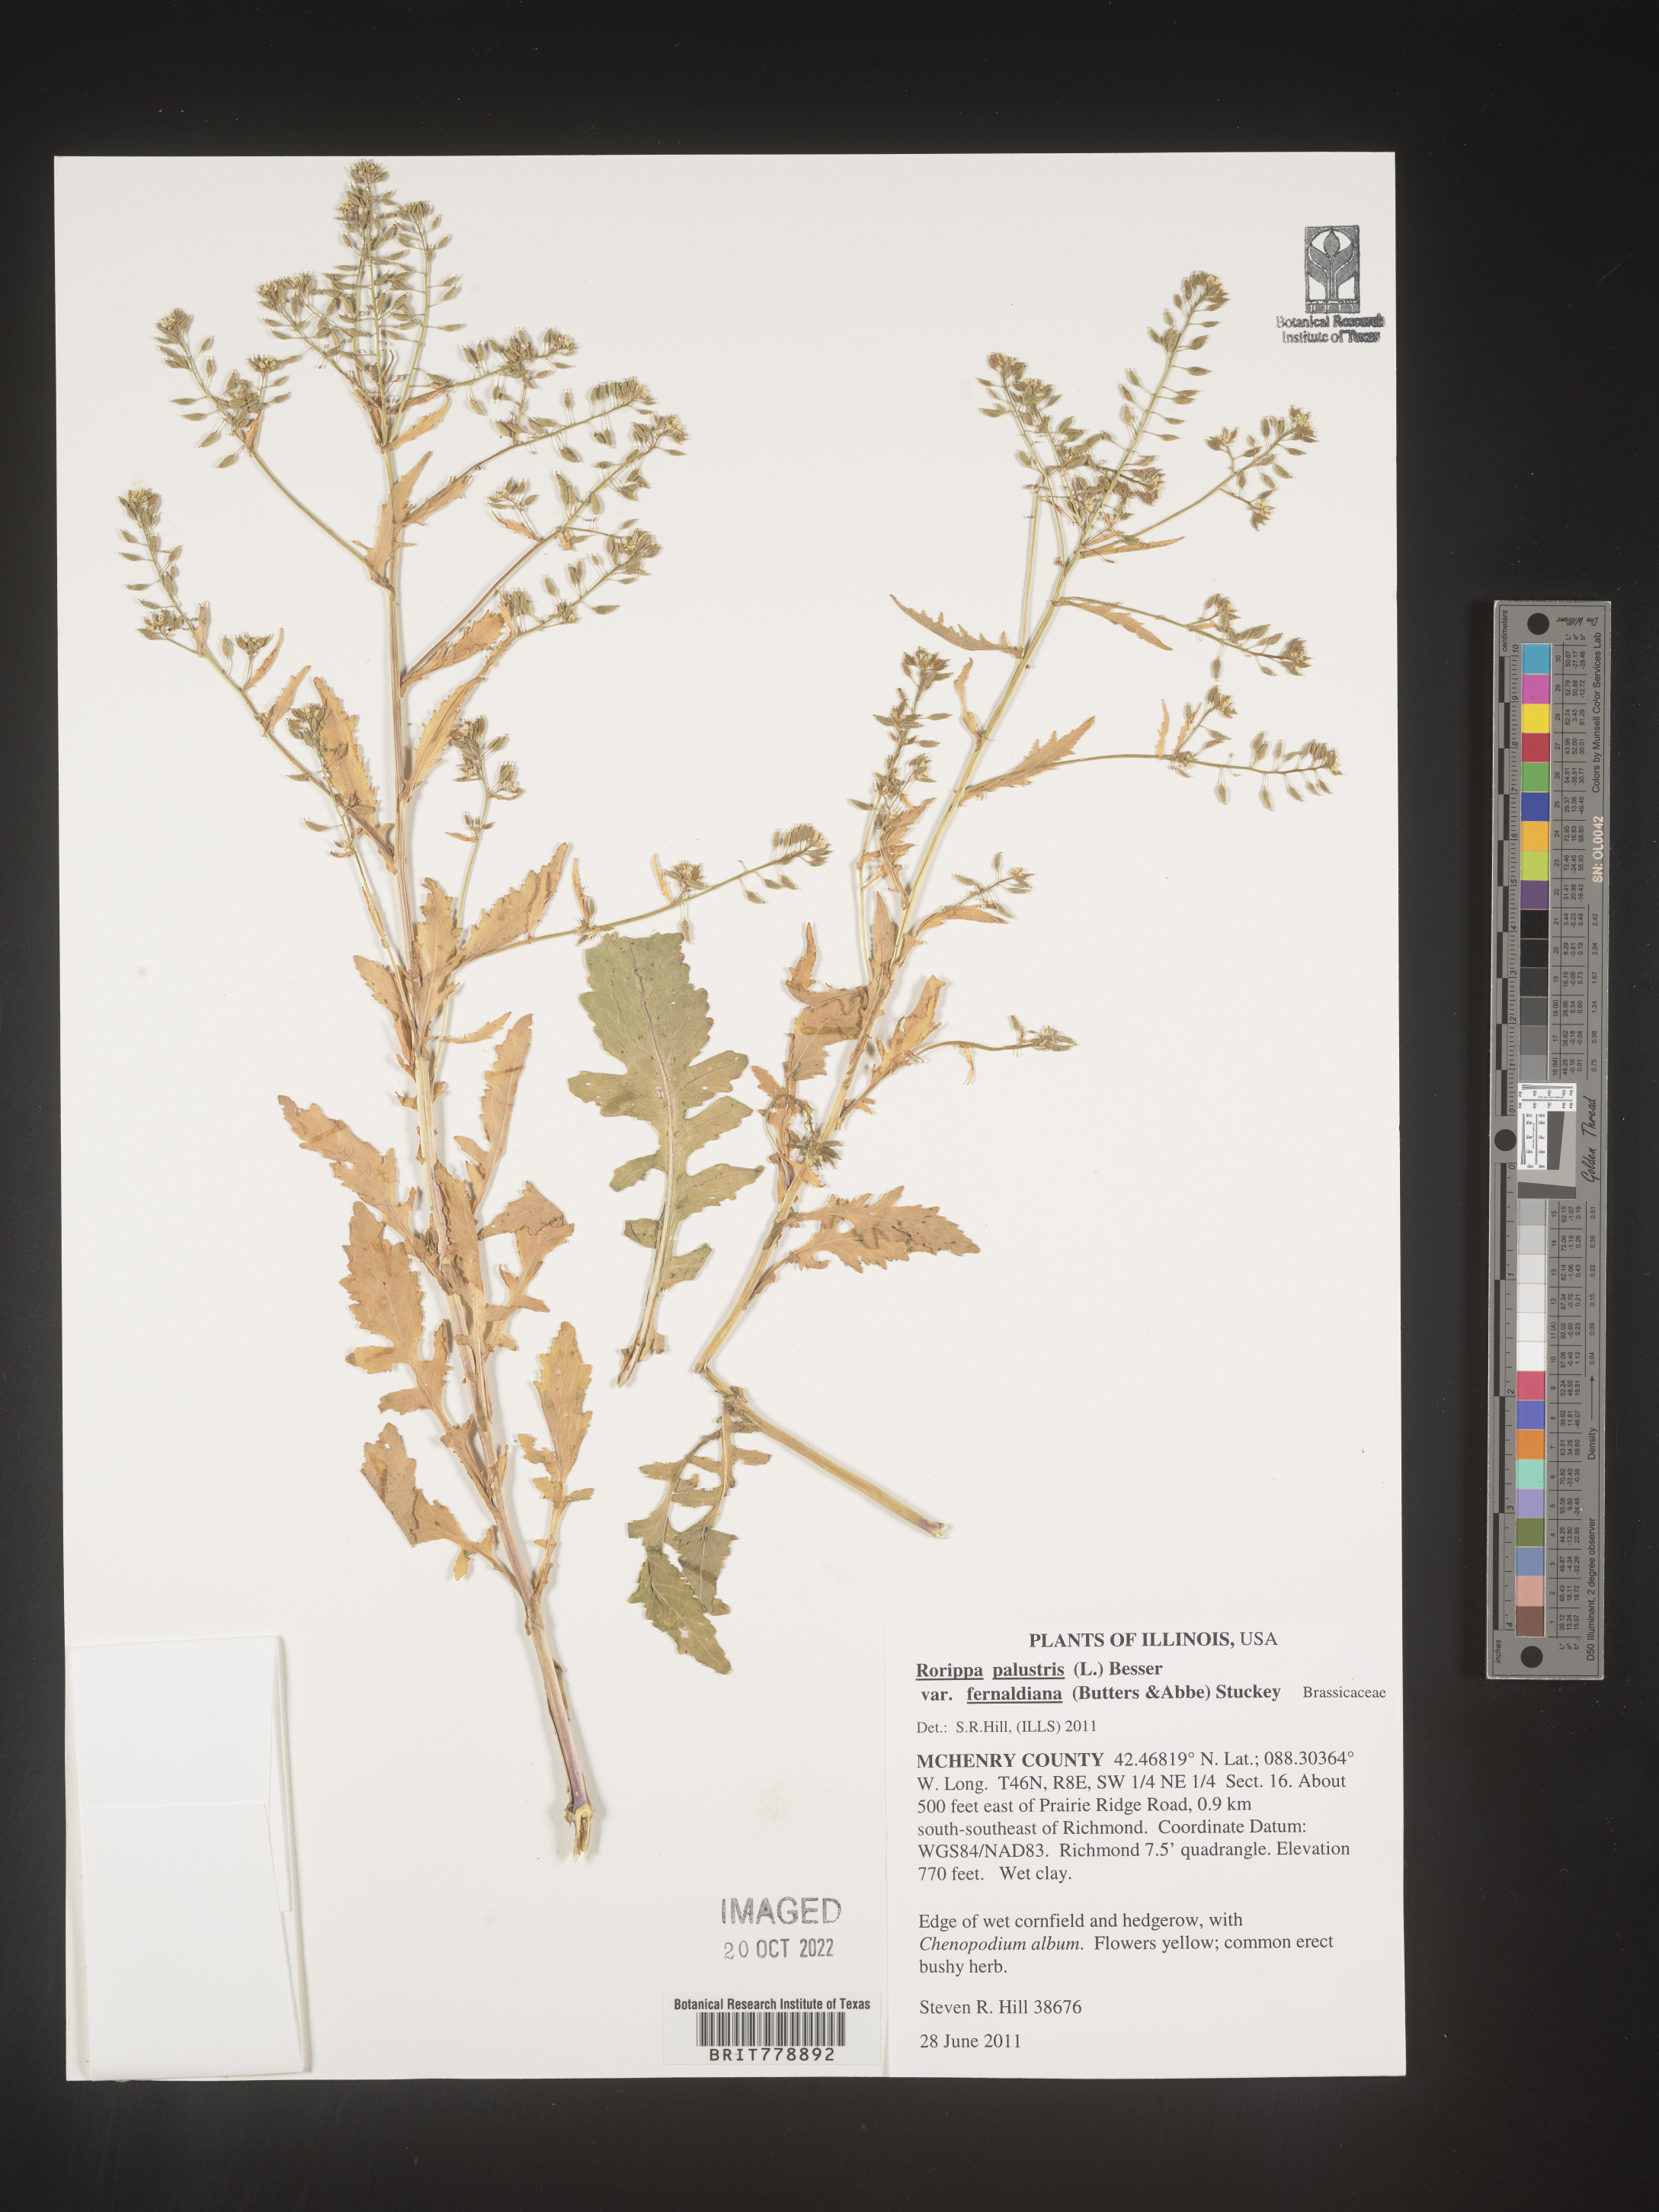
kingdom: Plantae
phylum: Tracheophyta
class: Magnoliopsida
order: Brassicales
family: Brassicaceae
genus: Rorippa
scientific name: Rorippa palustris
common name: Marsh yellow-cress
